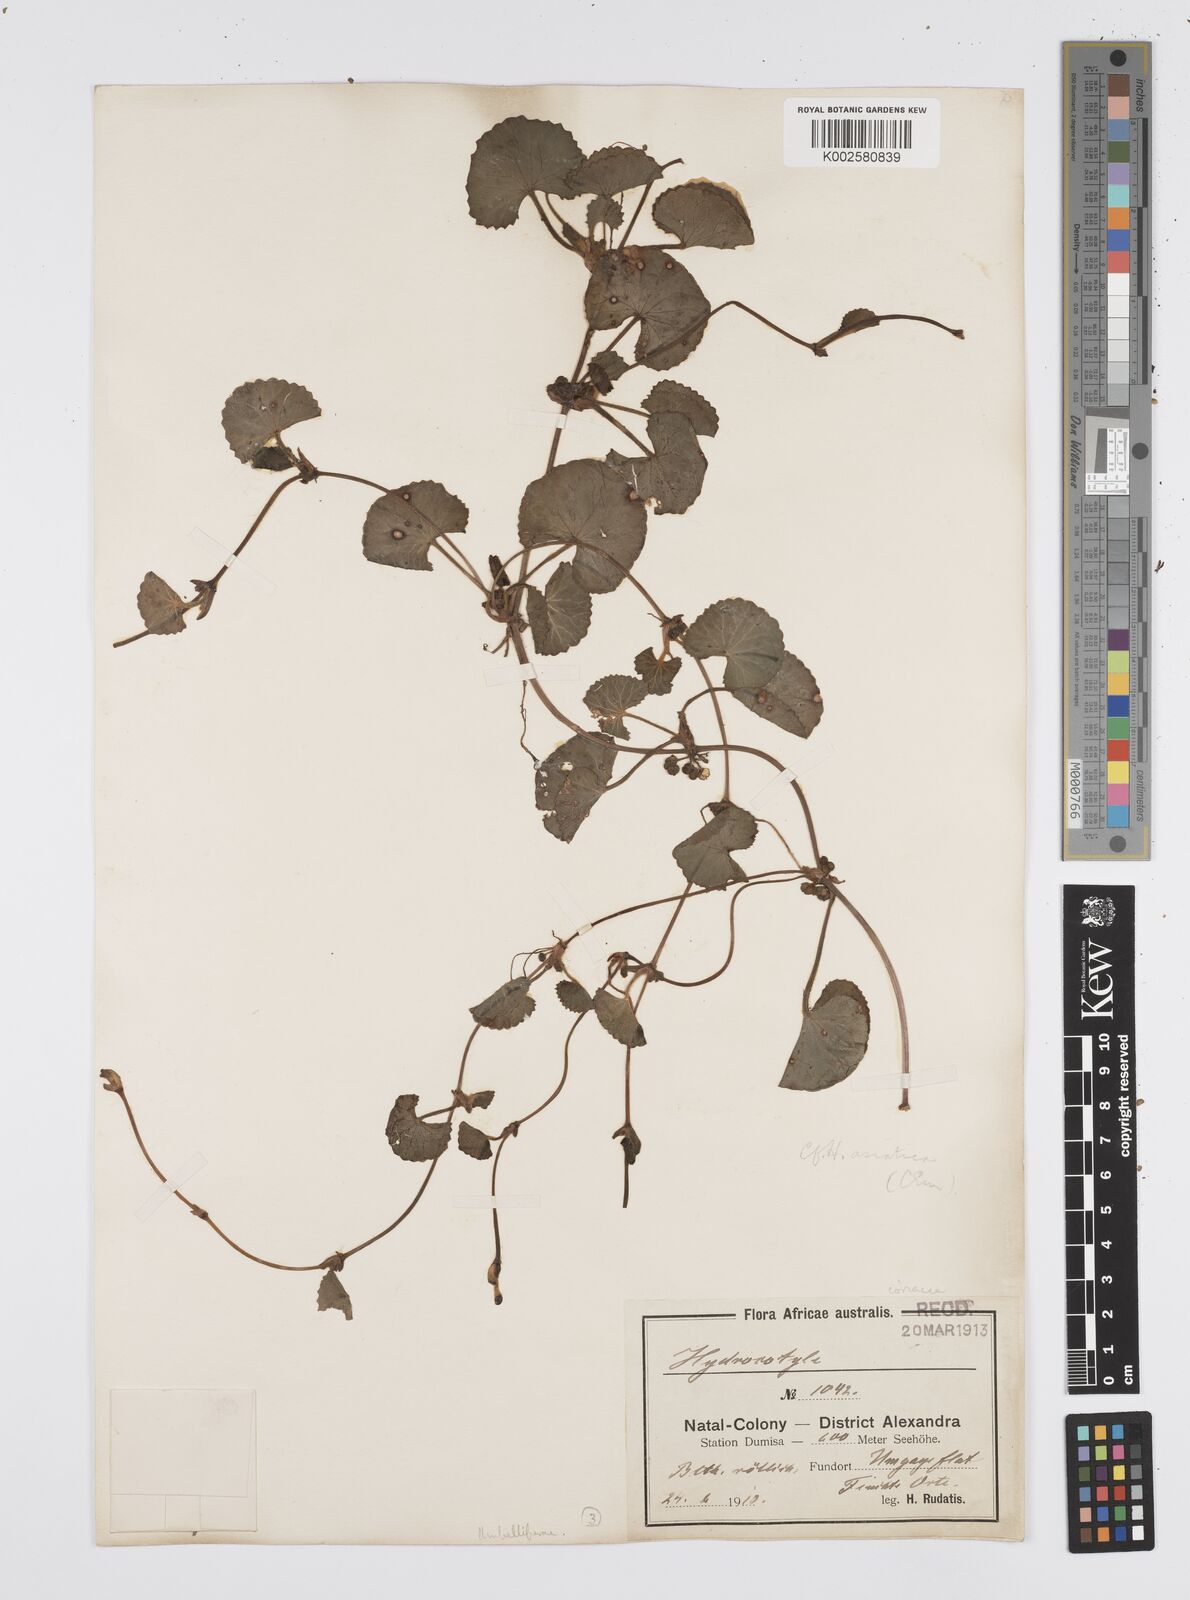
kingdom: Plantae
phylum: Tracheophyta
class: Magnoliopsida
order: Apiales
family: Apiaceae
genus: Centella
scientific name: Centella coriacea
